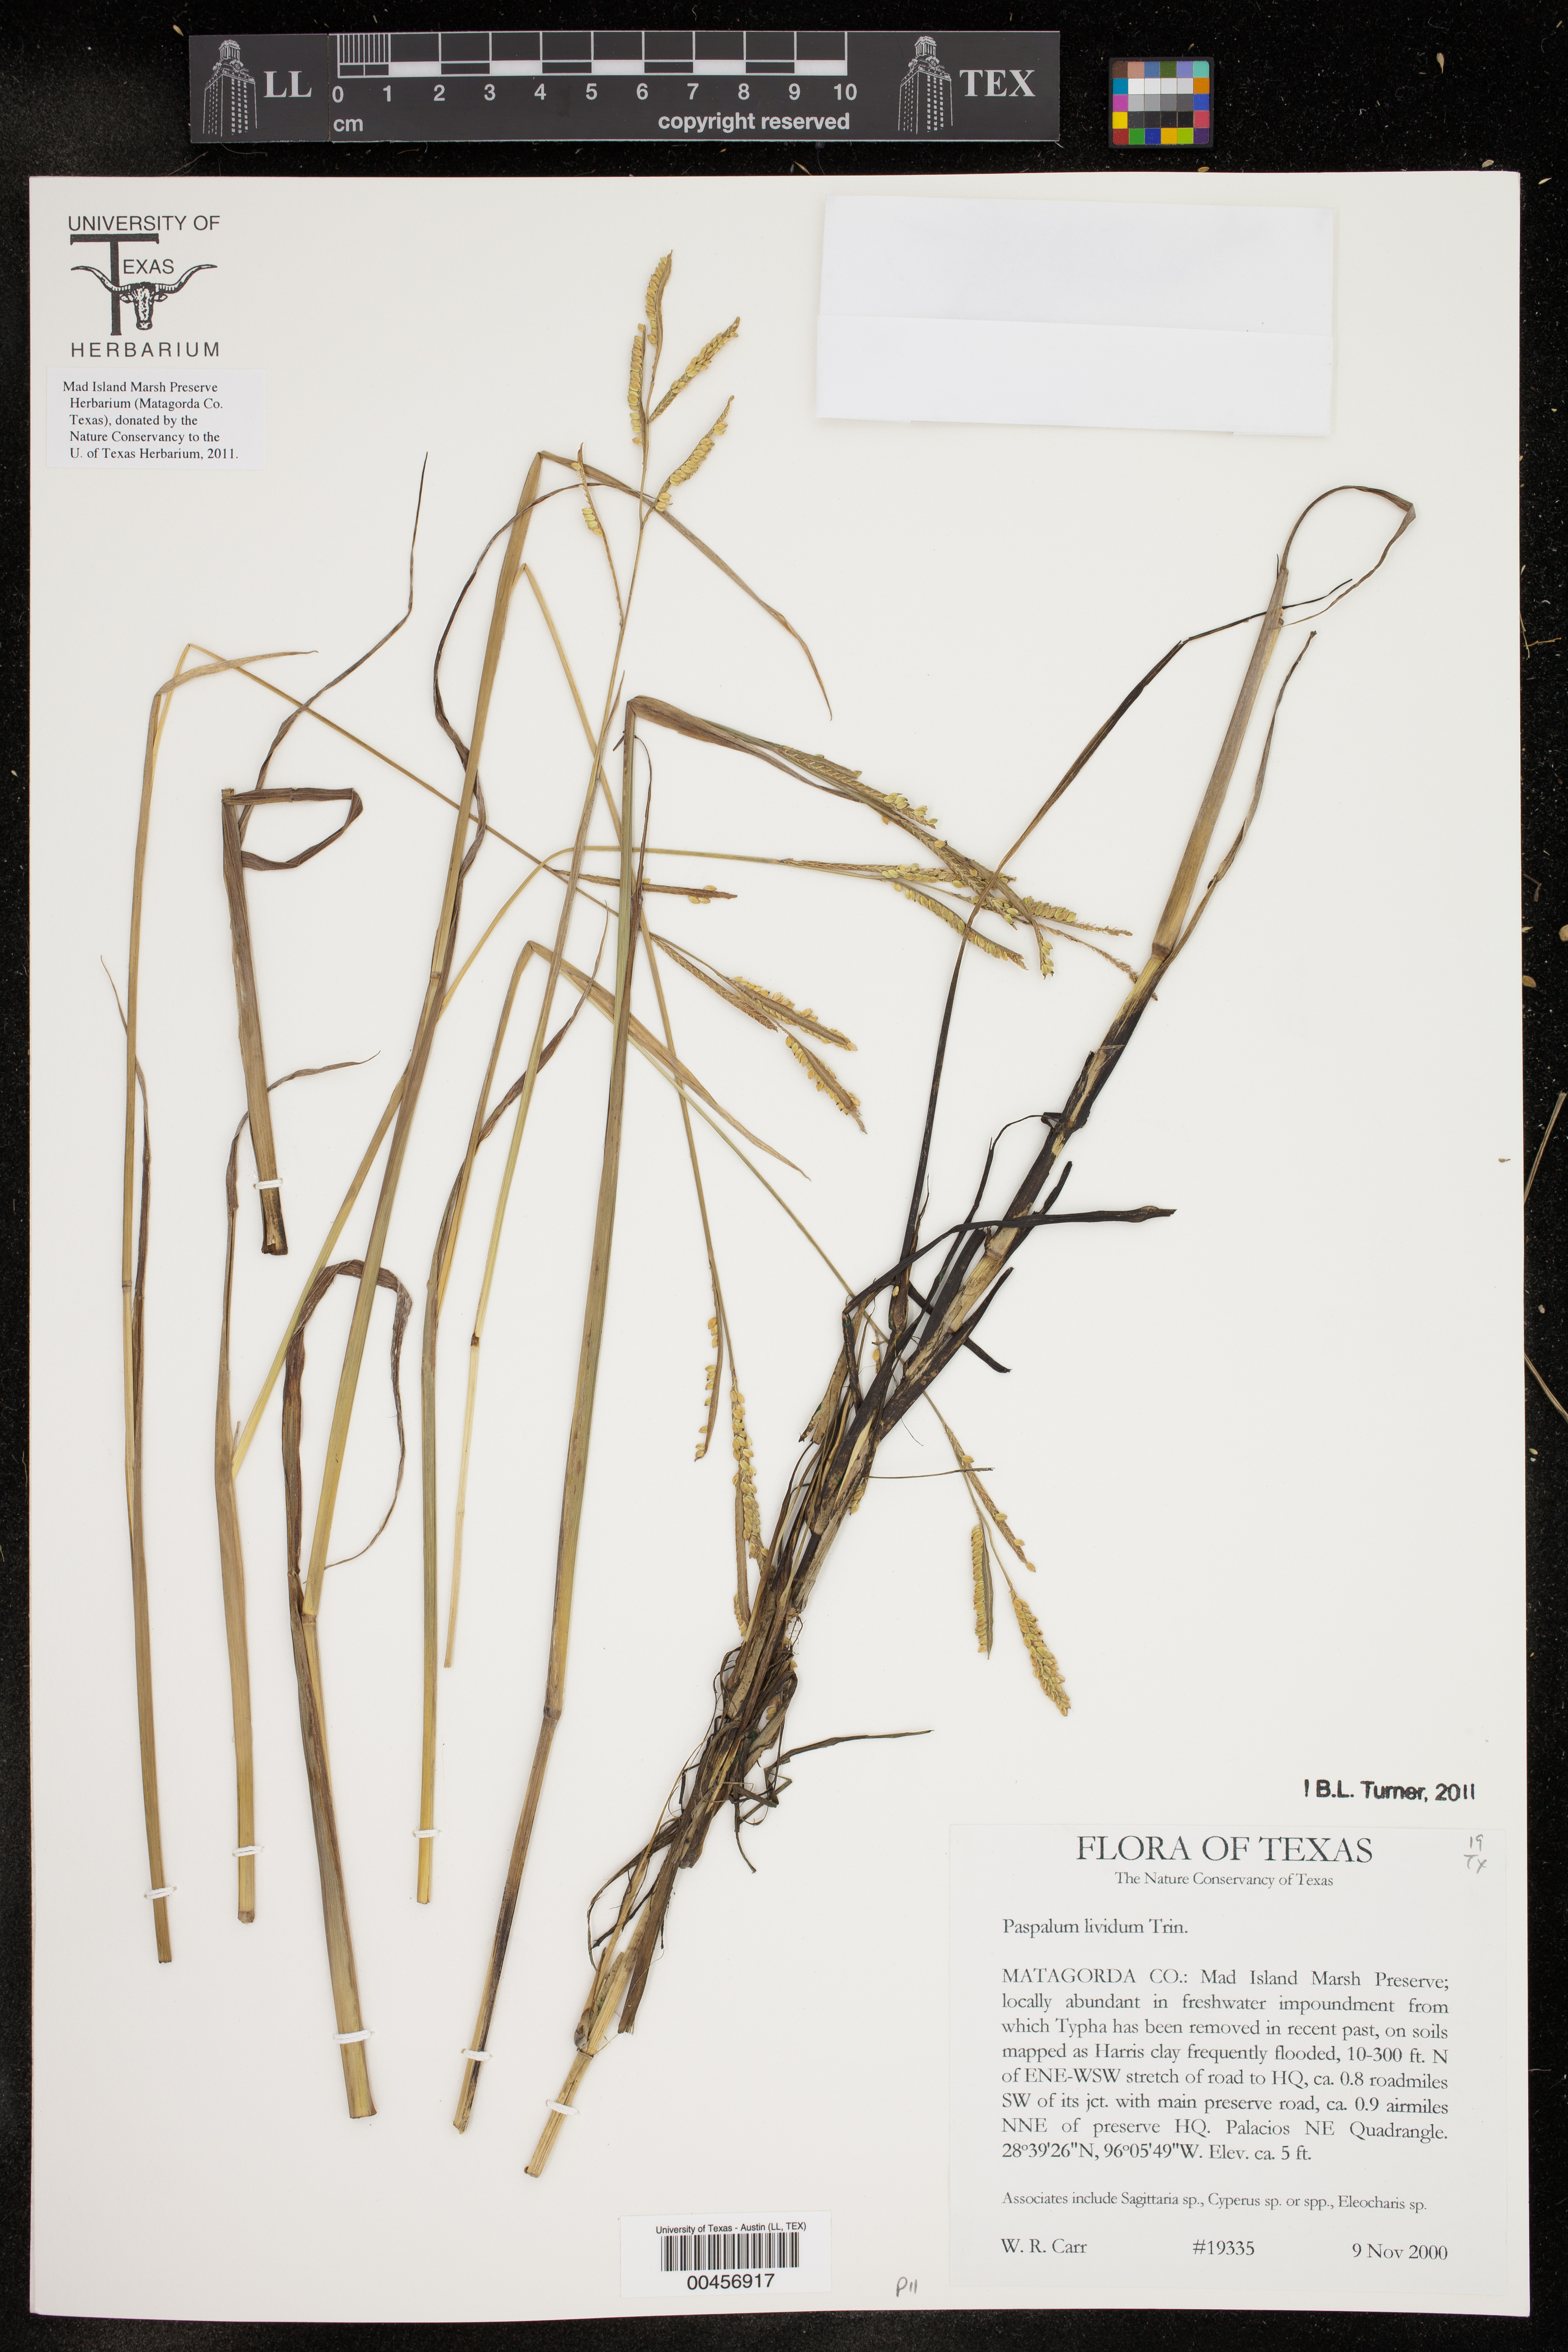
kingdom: Plantae
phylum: Tracheophyta
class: Liliopsida
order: Poales
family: Poaceae
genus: Paspalum
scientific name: Paspalum denticulatum
